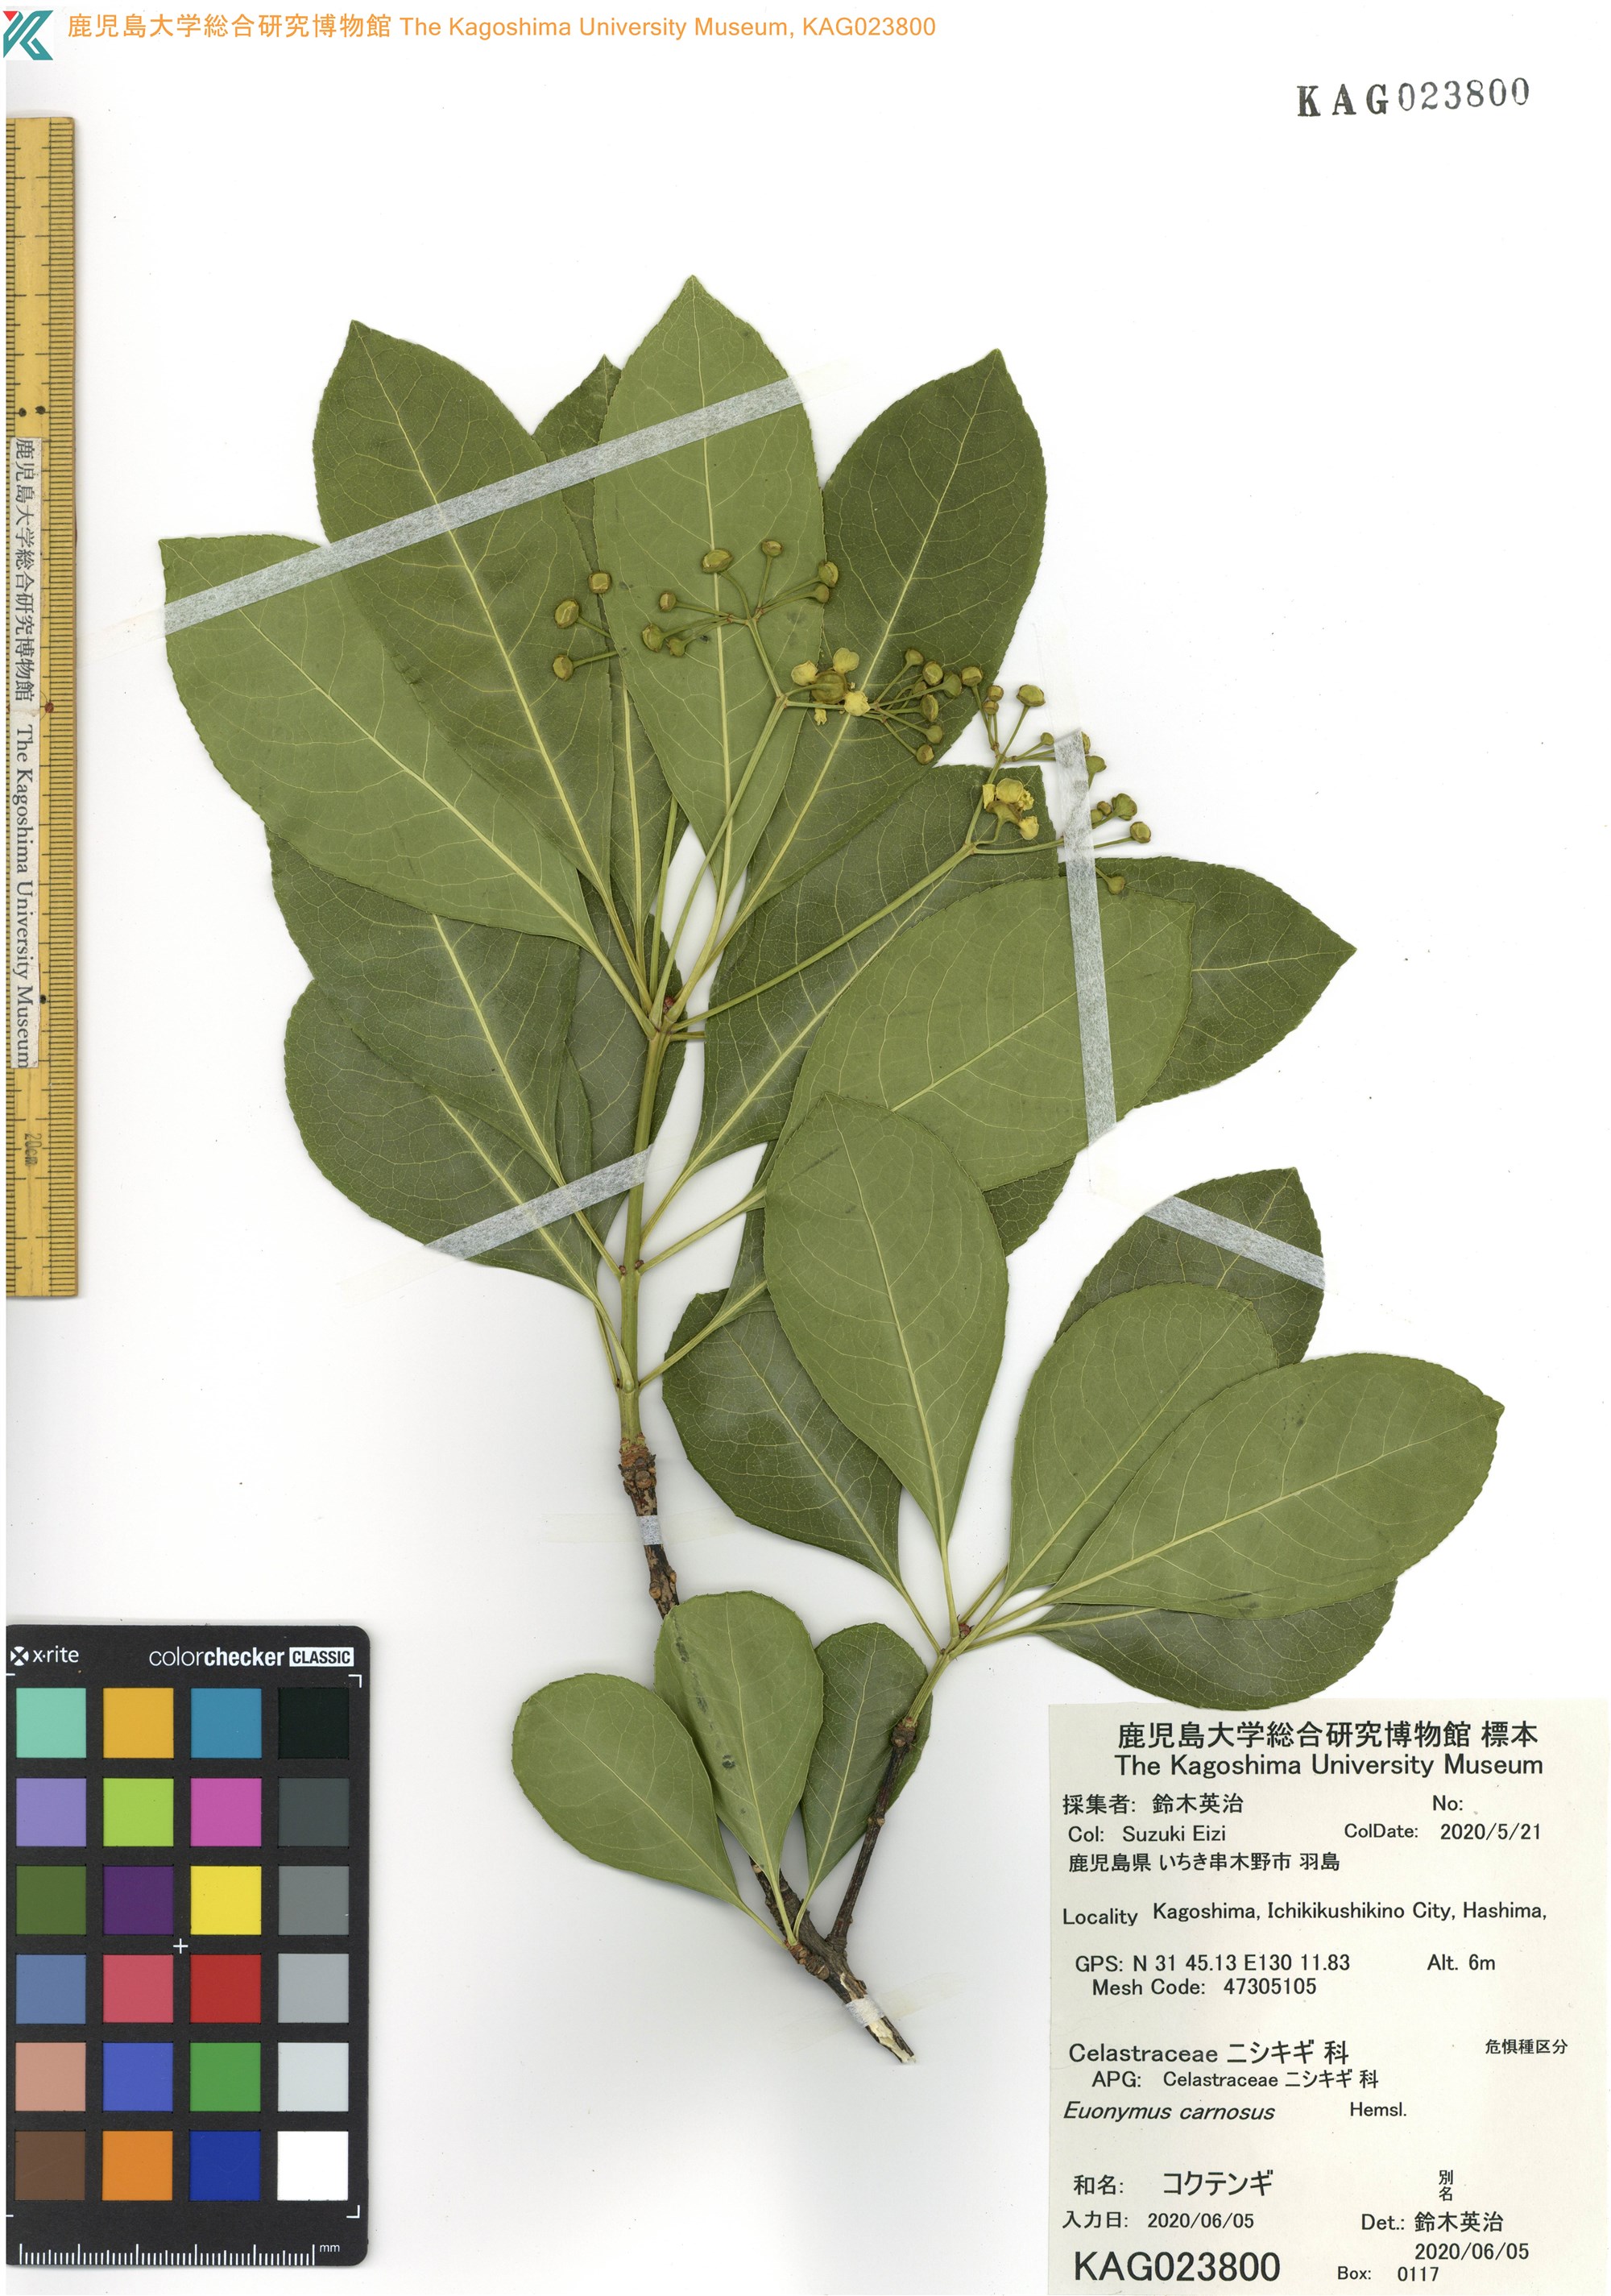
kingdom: Plantae
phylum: Tracheophyta
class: Magnoliopsida
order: Celastrales
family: Celastraceae
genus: Euonymus
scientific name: Euonymus carnosus
